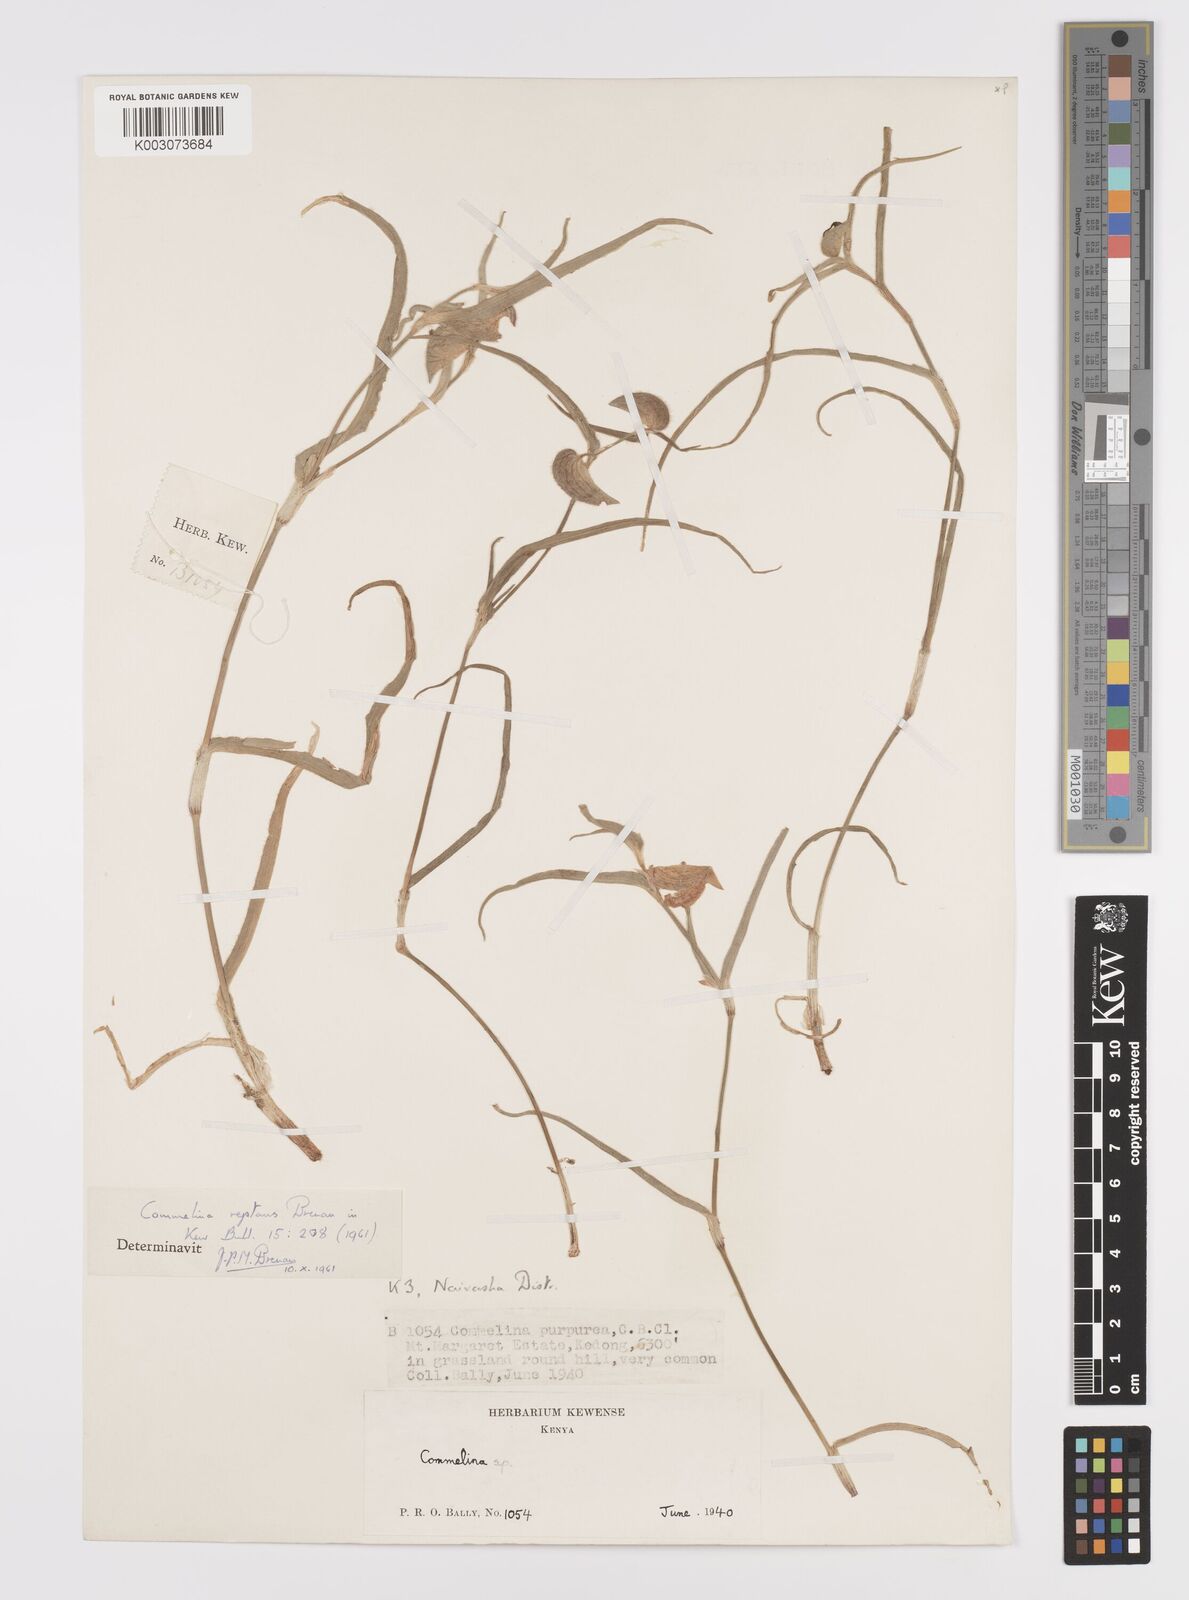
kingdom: Plantae
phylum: Tracheophyta
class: Liliopsida
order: Commelinales
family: Commelinaceae
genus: Commelina
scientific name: Commelina reptans
